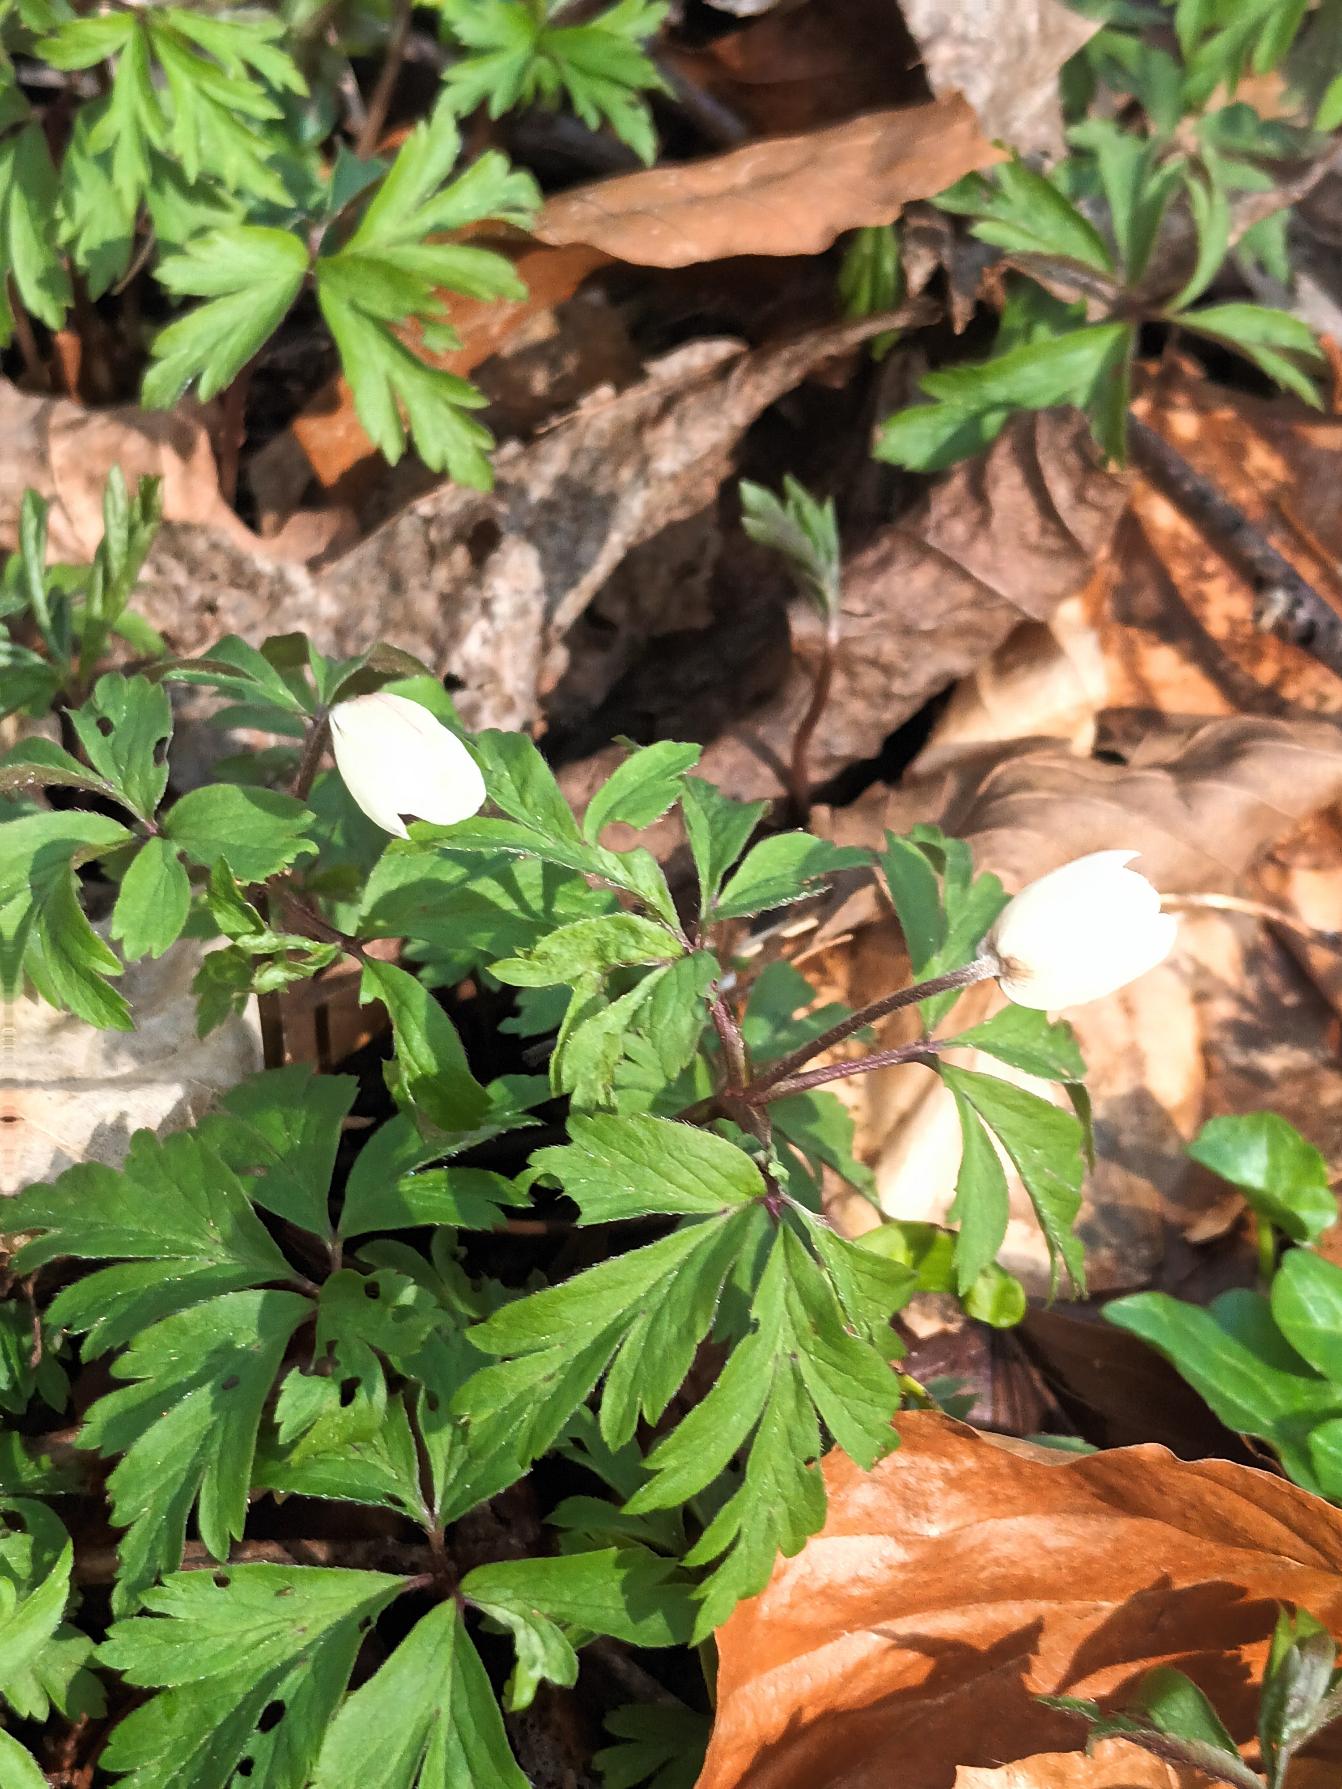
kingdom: Plantae
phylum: Tracheophyta
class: Magnoliopsida
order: Ranunculales
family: Ranunculaceae
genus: Anemone
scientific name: Anemone nemorosa
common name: Hvid anemone
